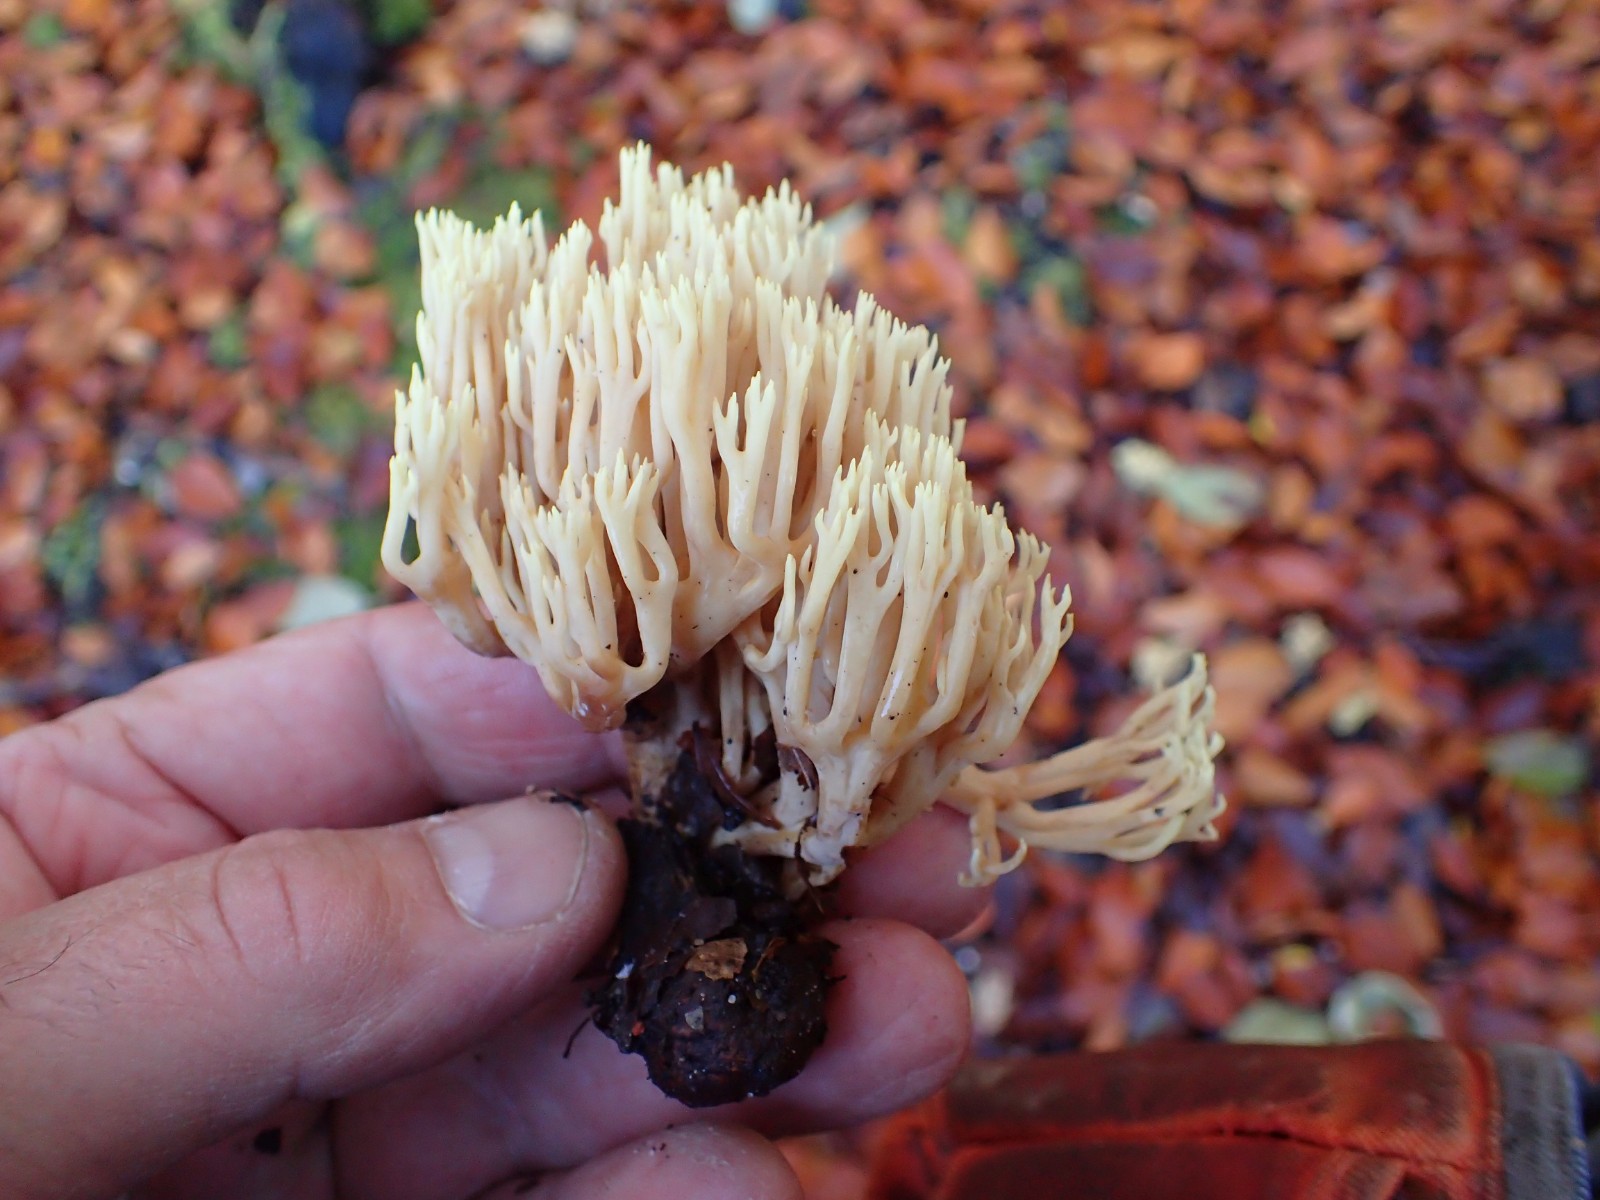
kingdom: Fungi
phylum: Basidiomycota
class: Agaricomycetes
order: Gomphales
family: Gomphaceae
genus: Ramaria
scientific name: Ramaria stricta
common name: rank koralsvamp
